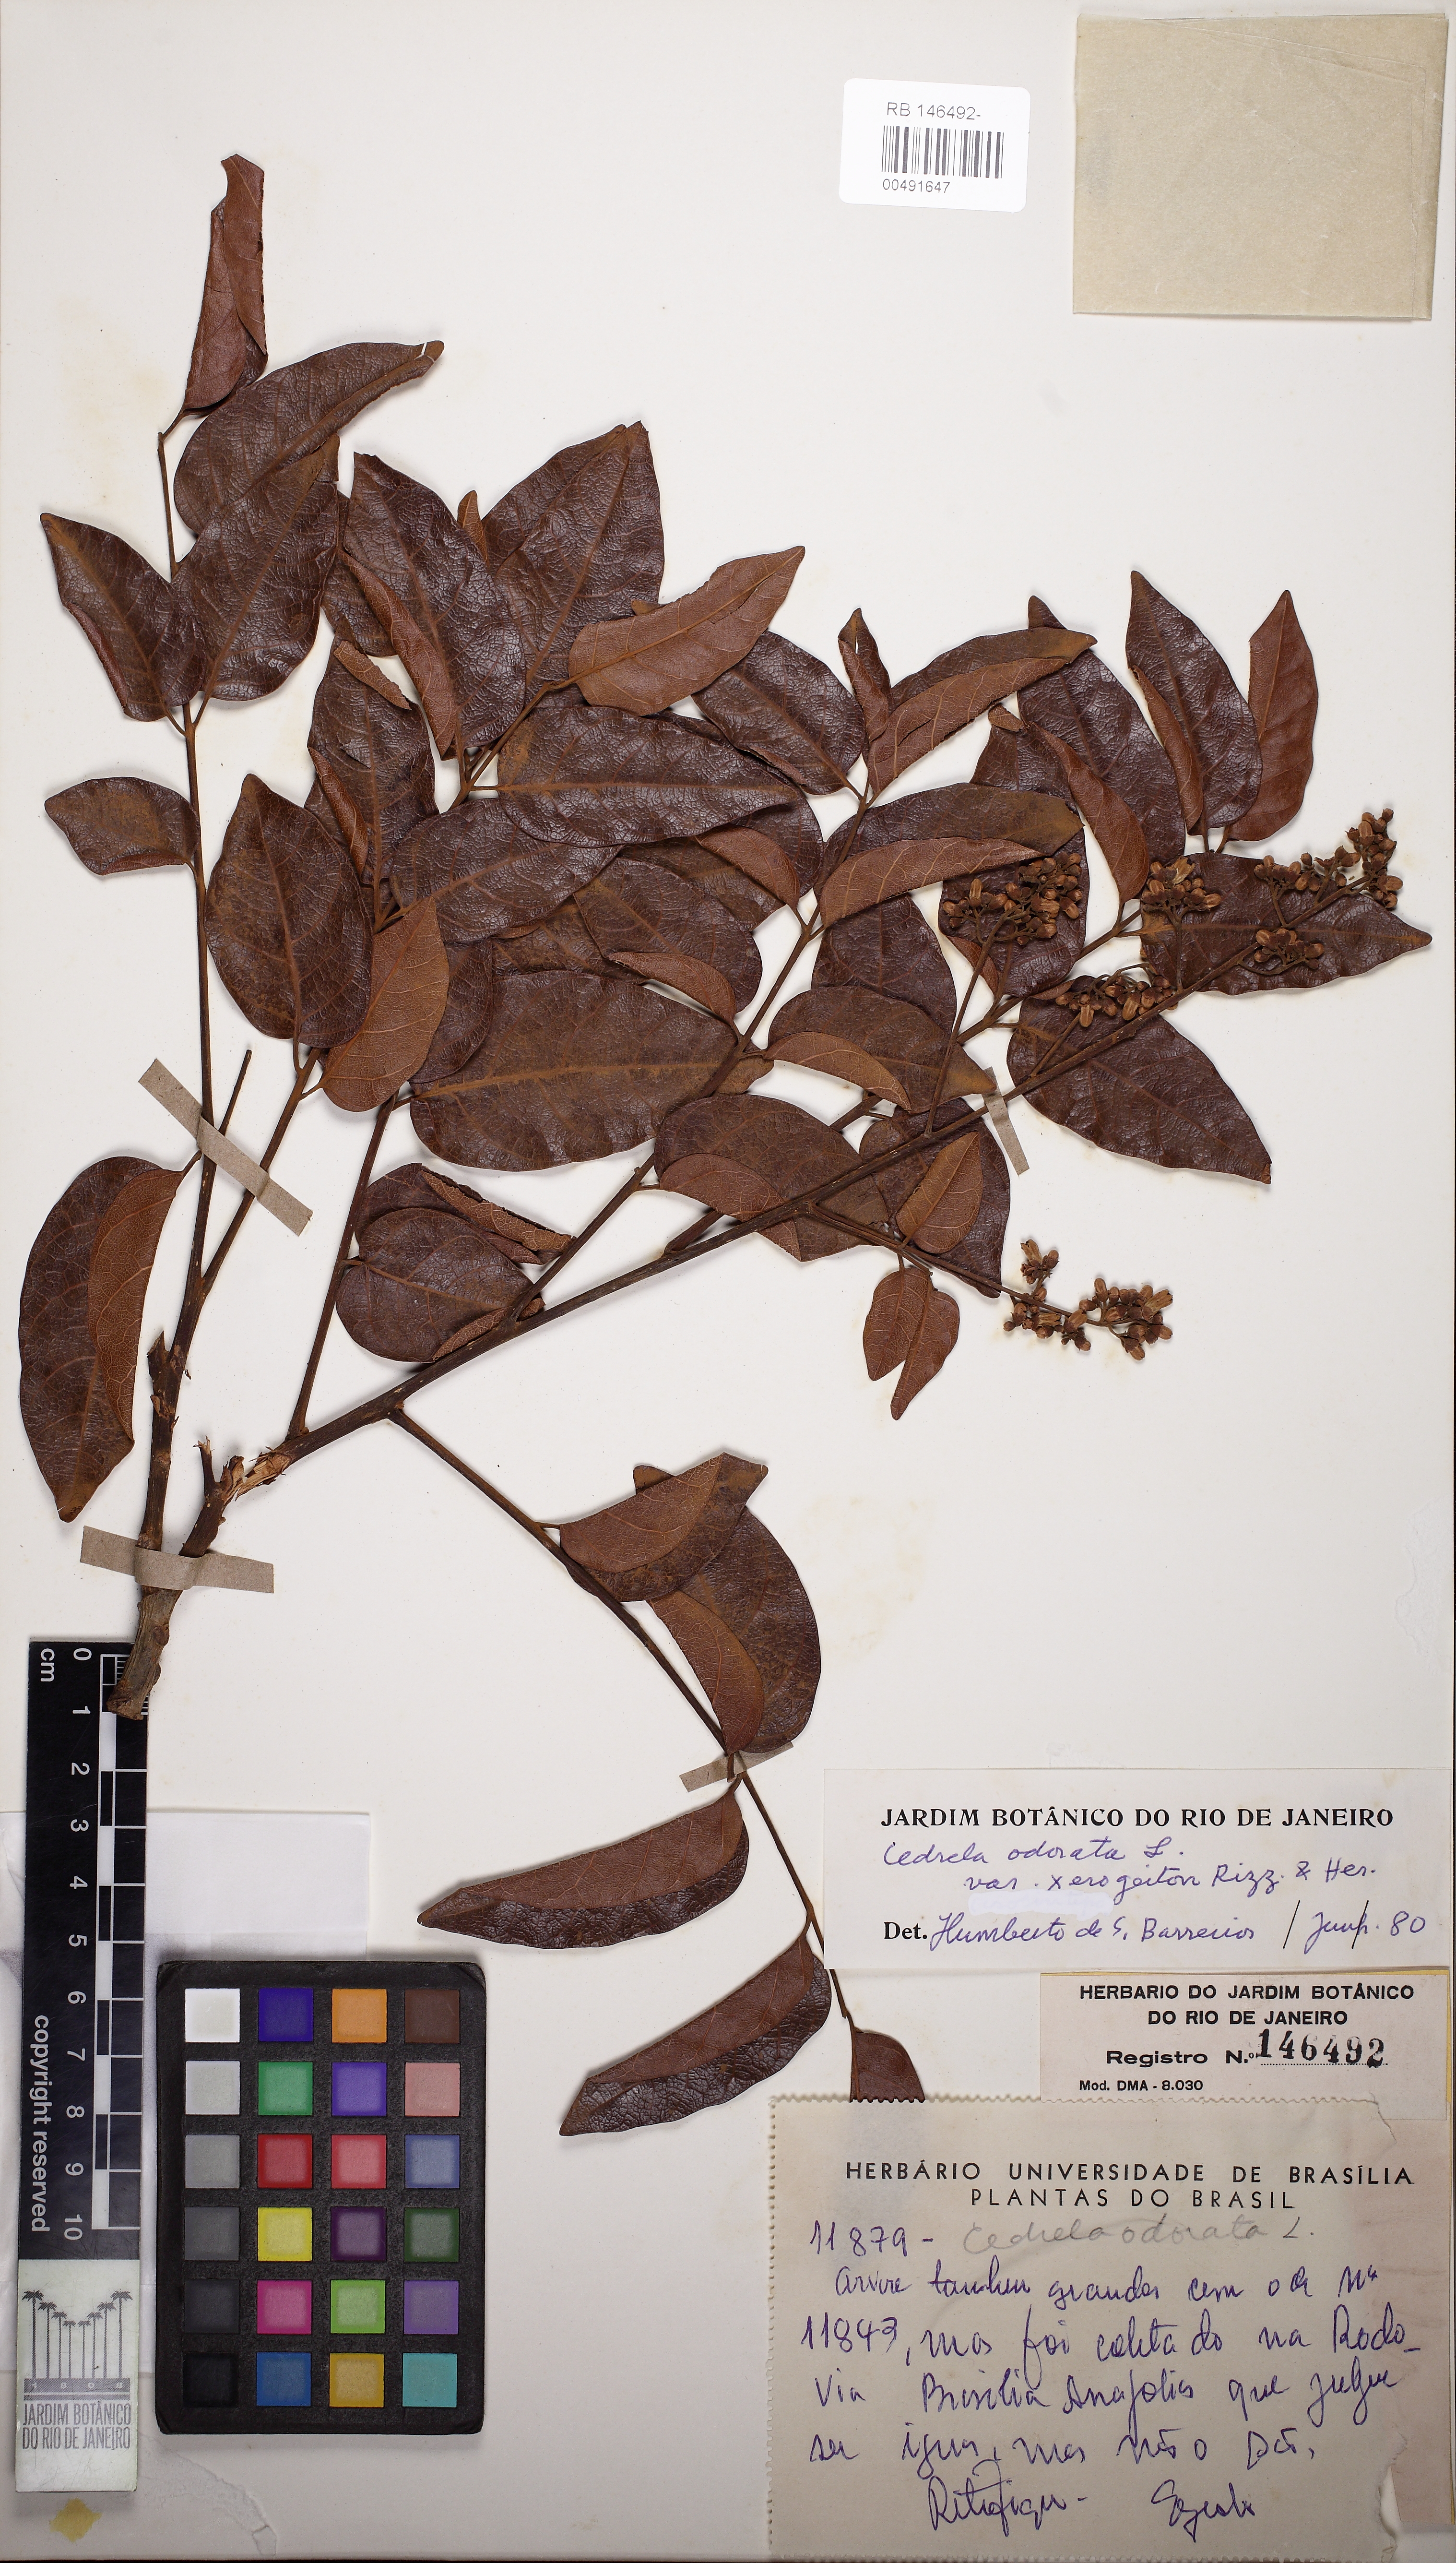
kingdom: Plantae
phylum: Tracheophyta
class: Magnoliopsida
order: Sapindales
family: Meliaceae
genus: Guarea
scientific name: Guarea
